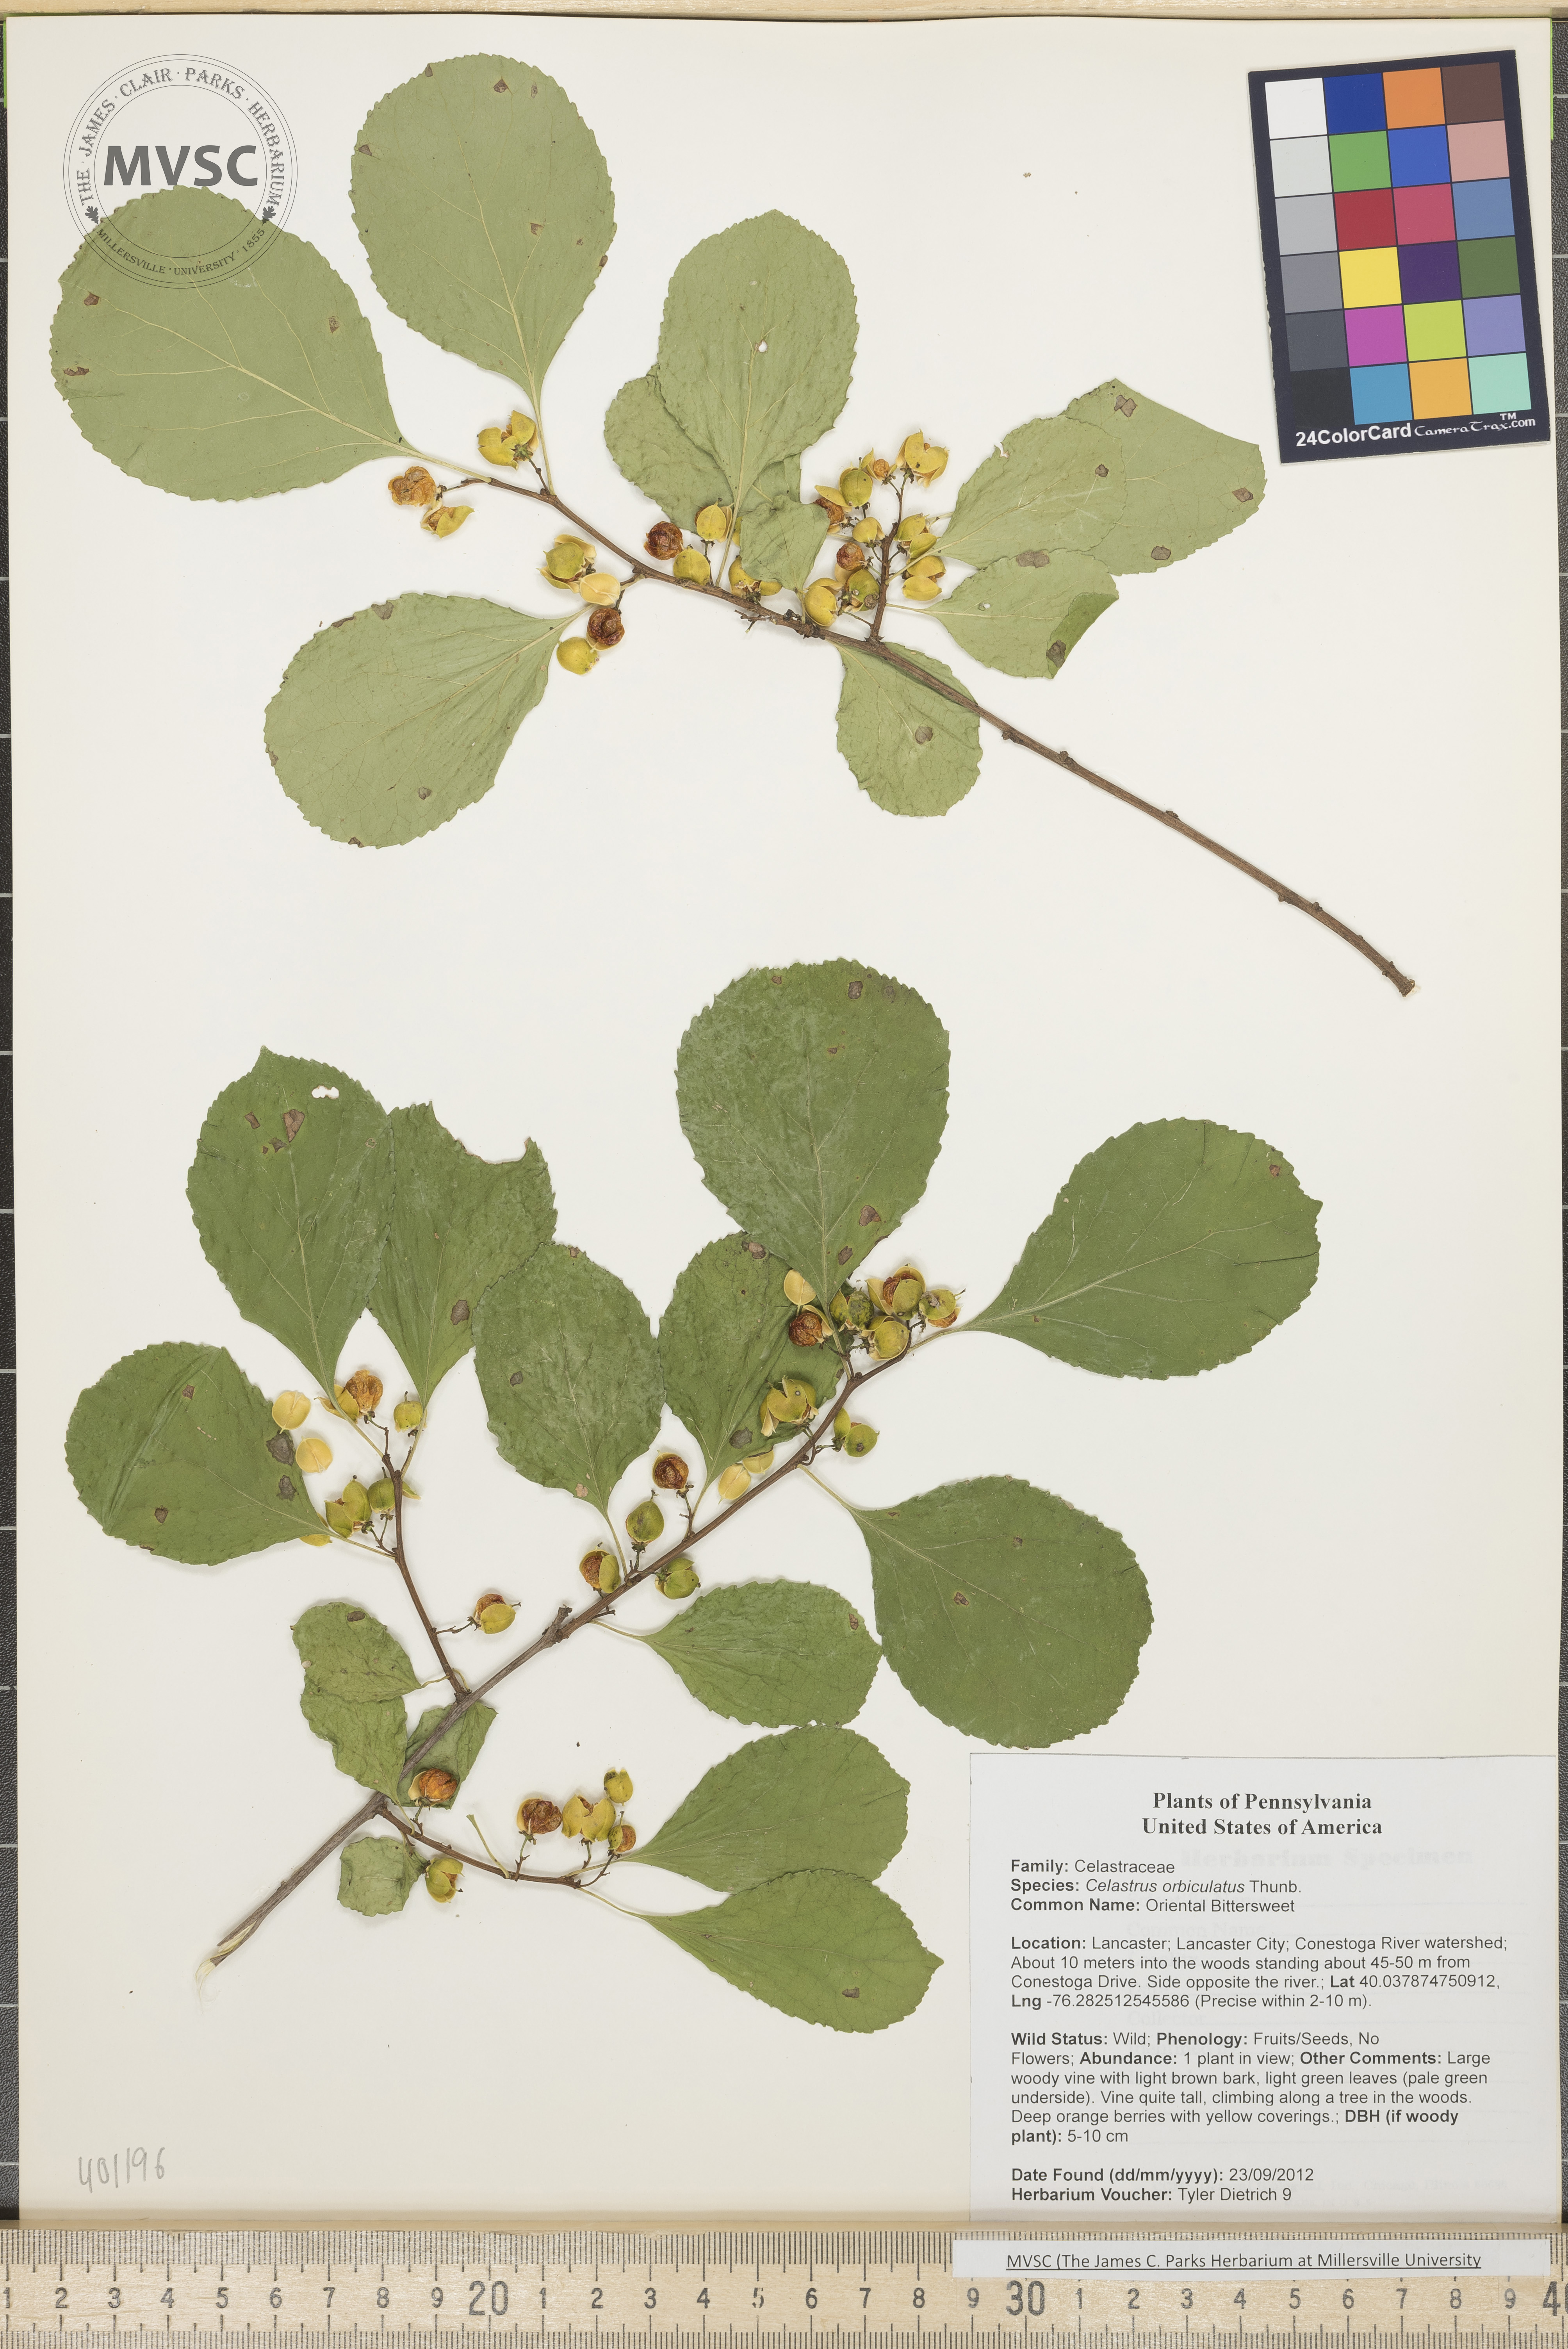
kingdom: Plantae
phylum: Tracheophyta
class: Magnoliopsida
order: Celastrales
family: Celastraceae
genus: Celastrus
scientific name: Celastrus orbiculatus
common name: Oriental Bittersweet
